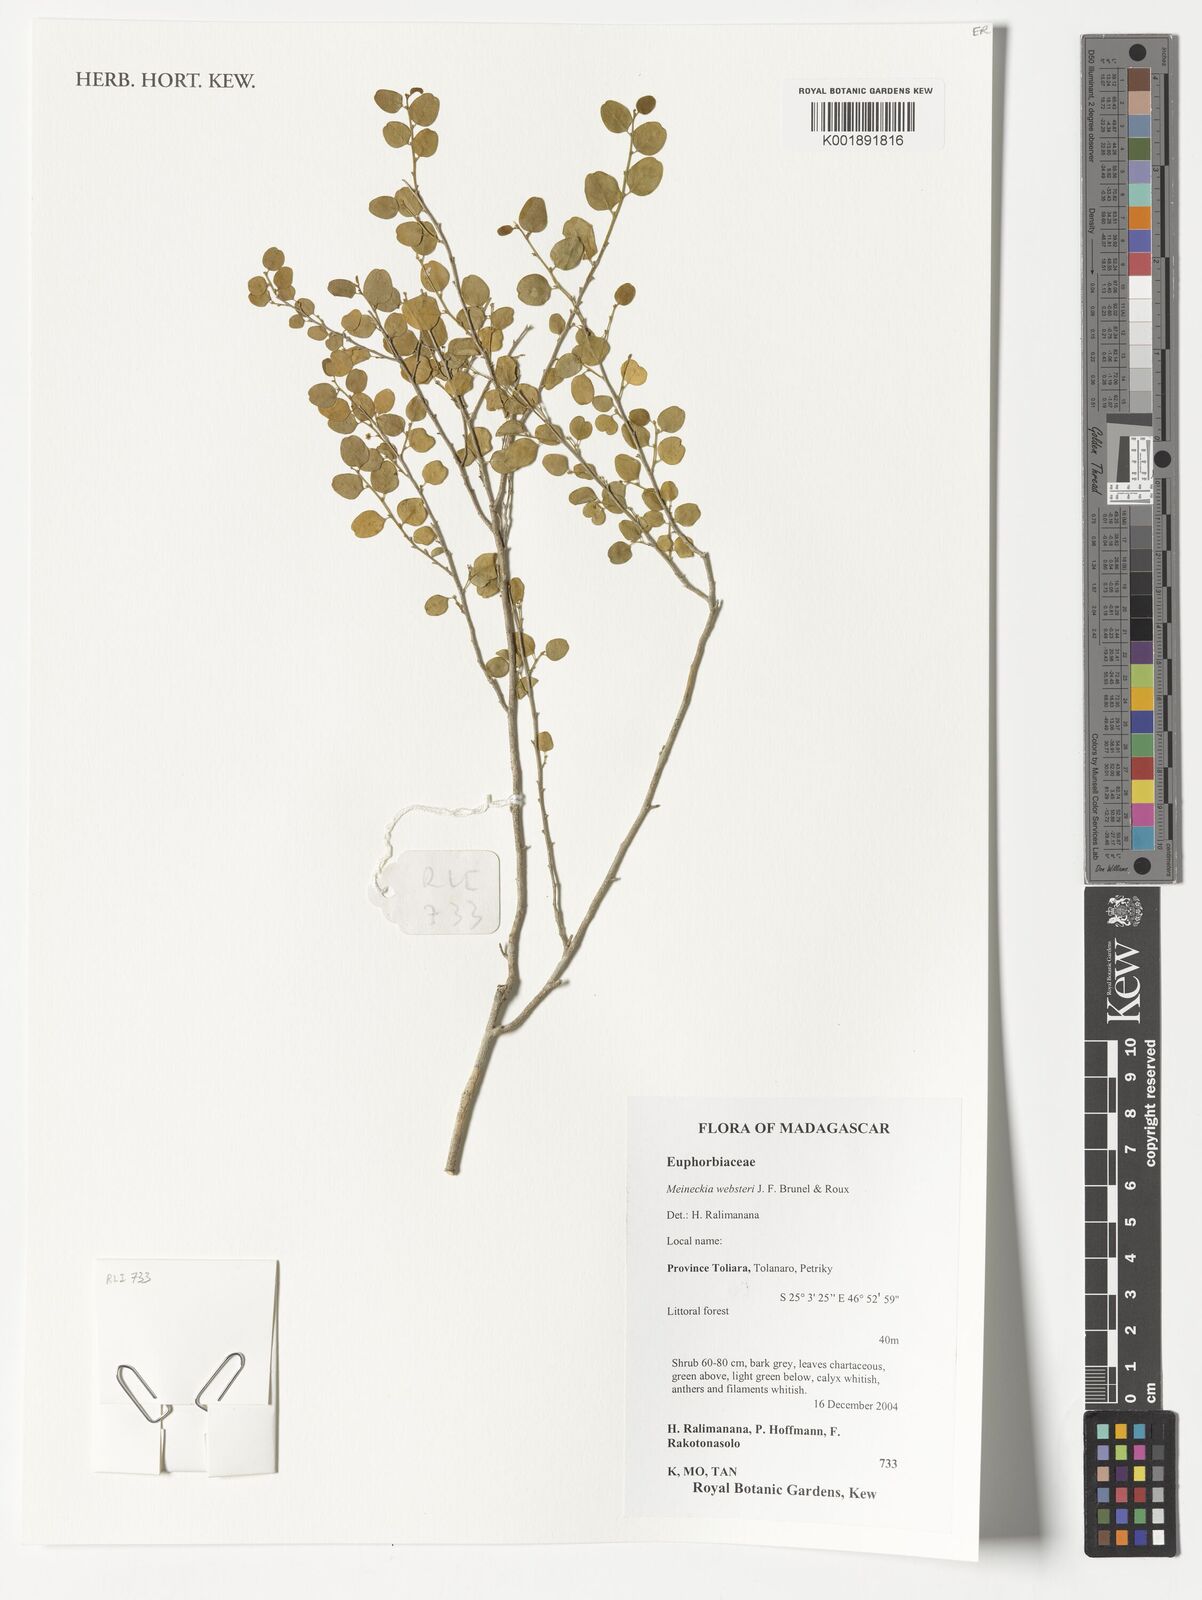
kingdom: Plantae
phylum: Tracheophyta
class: Magnoliopsida
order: Malpighiales
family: Phyllanthaceae
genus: Meineckia
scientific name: Meineckia websteri
